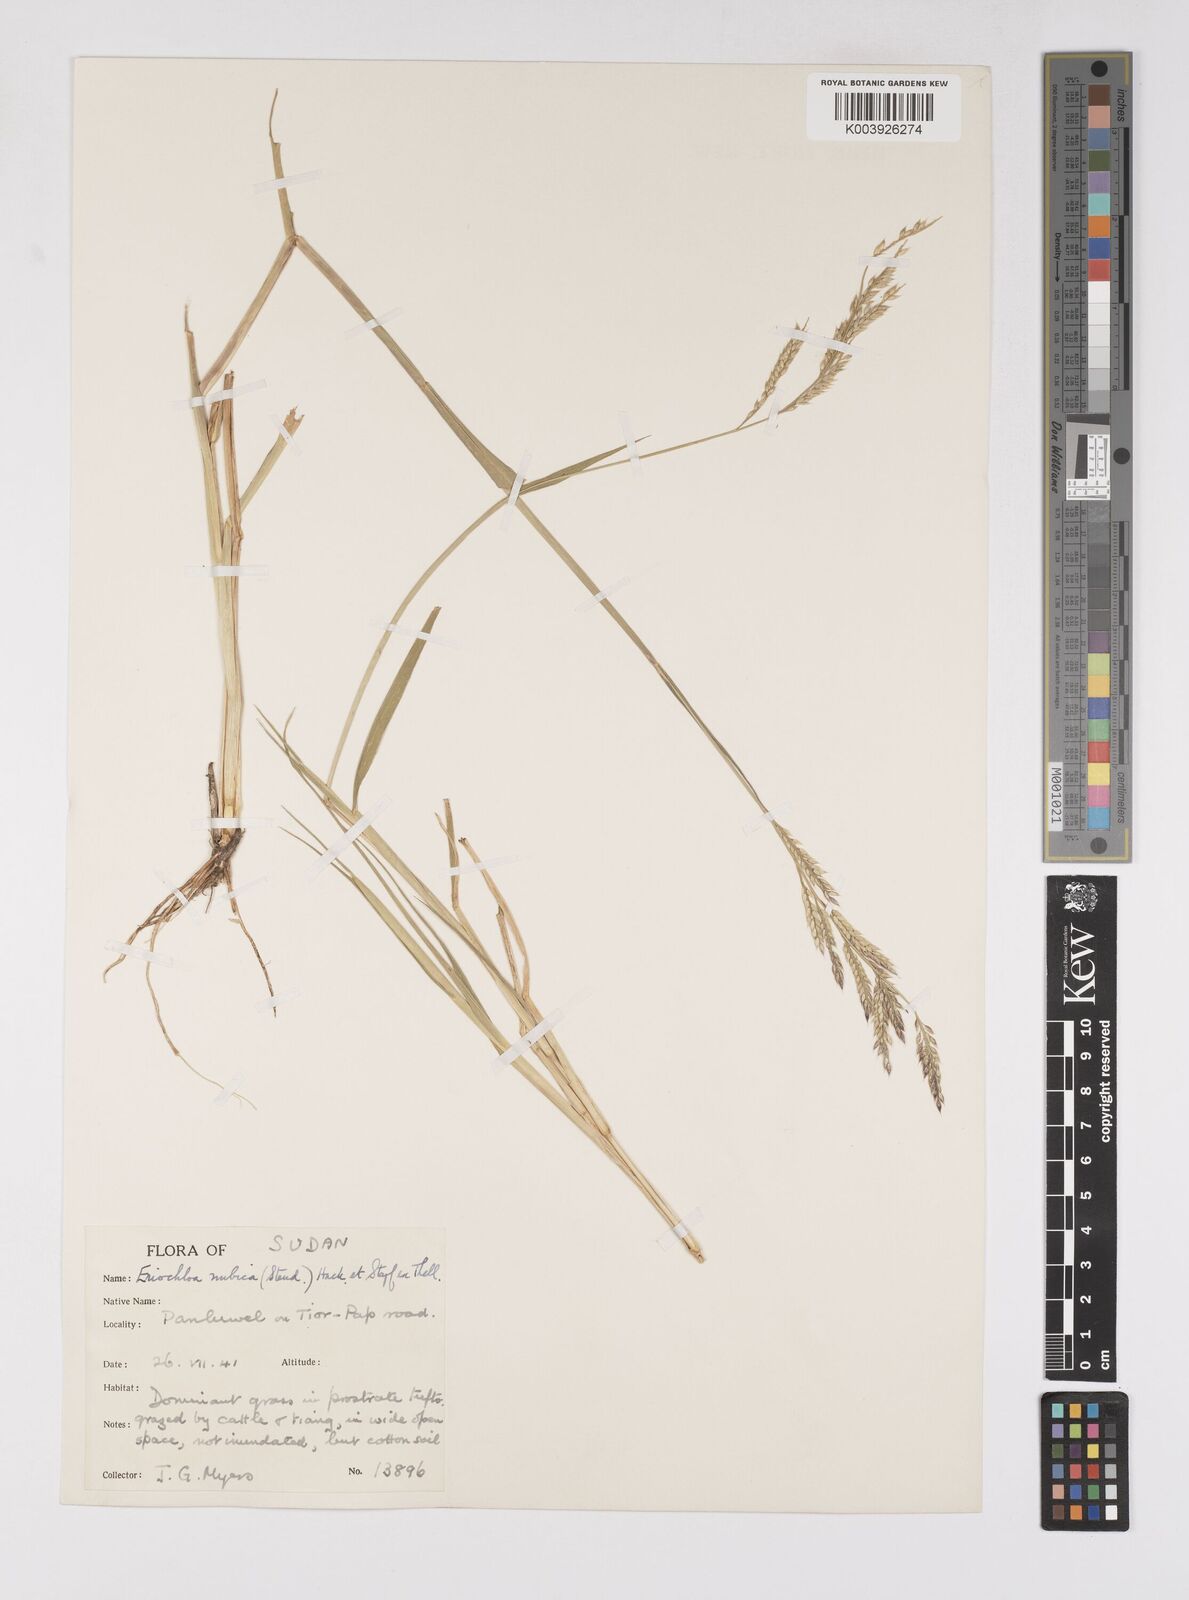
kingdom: Plantae
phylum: Tracheophyta
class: Liliopsida
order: Poales
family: Poaceae
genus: Eriochloa
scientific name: Eriochloa barbatus
